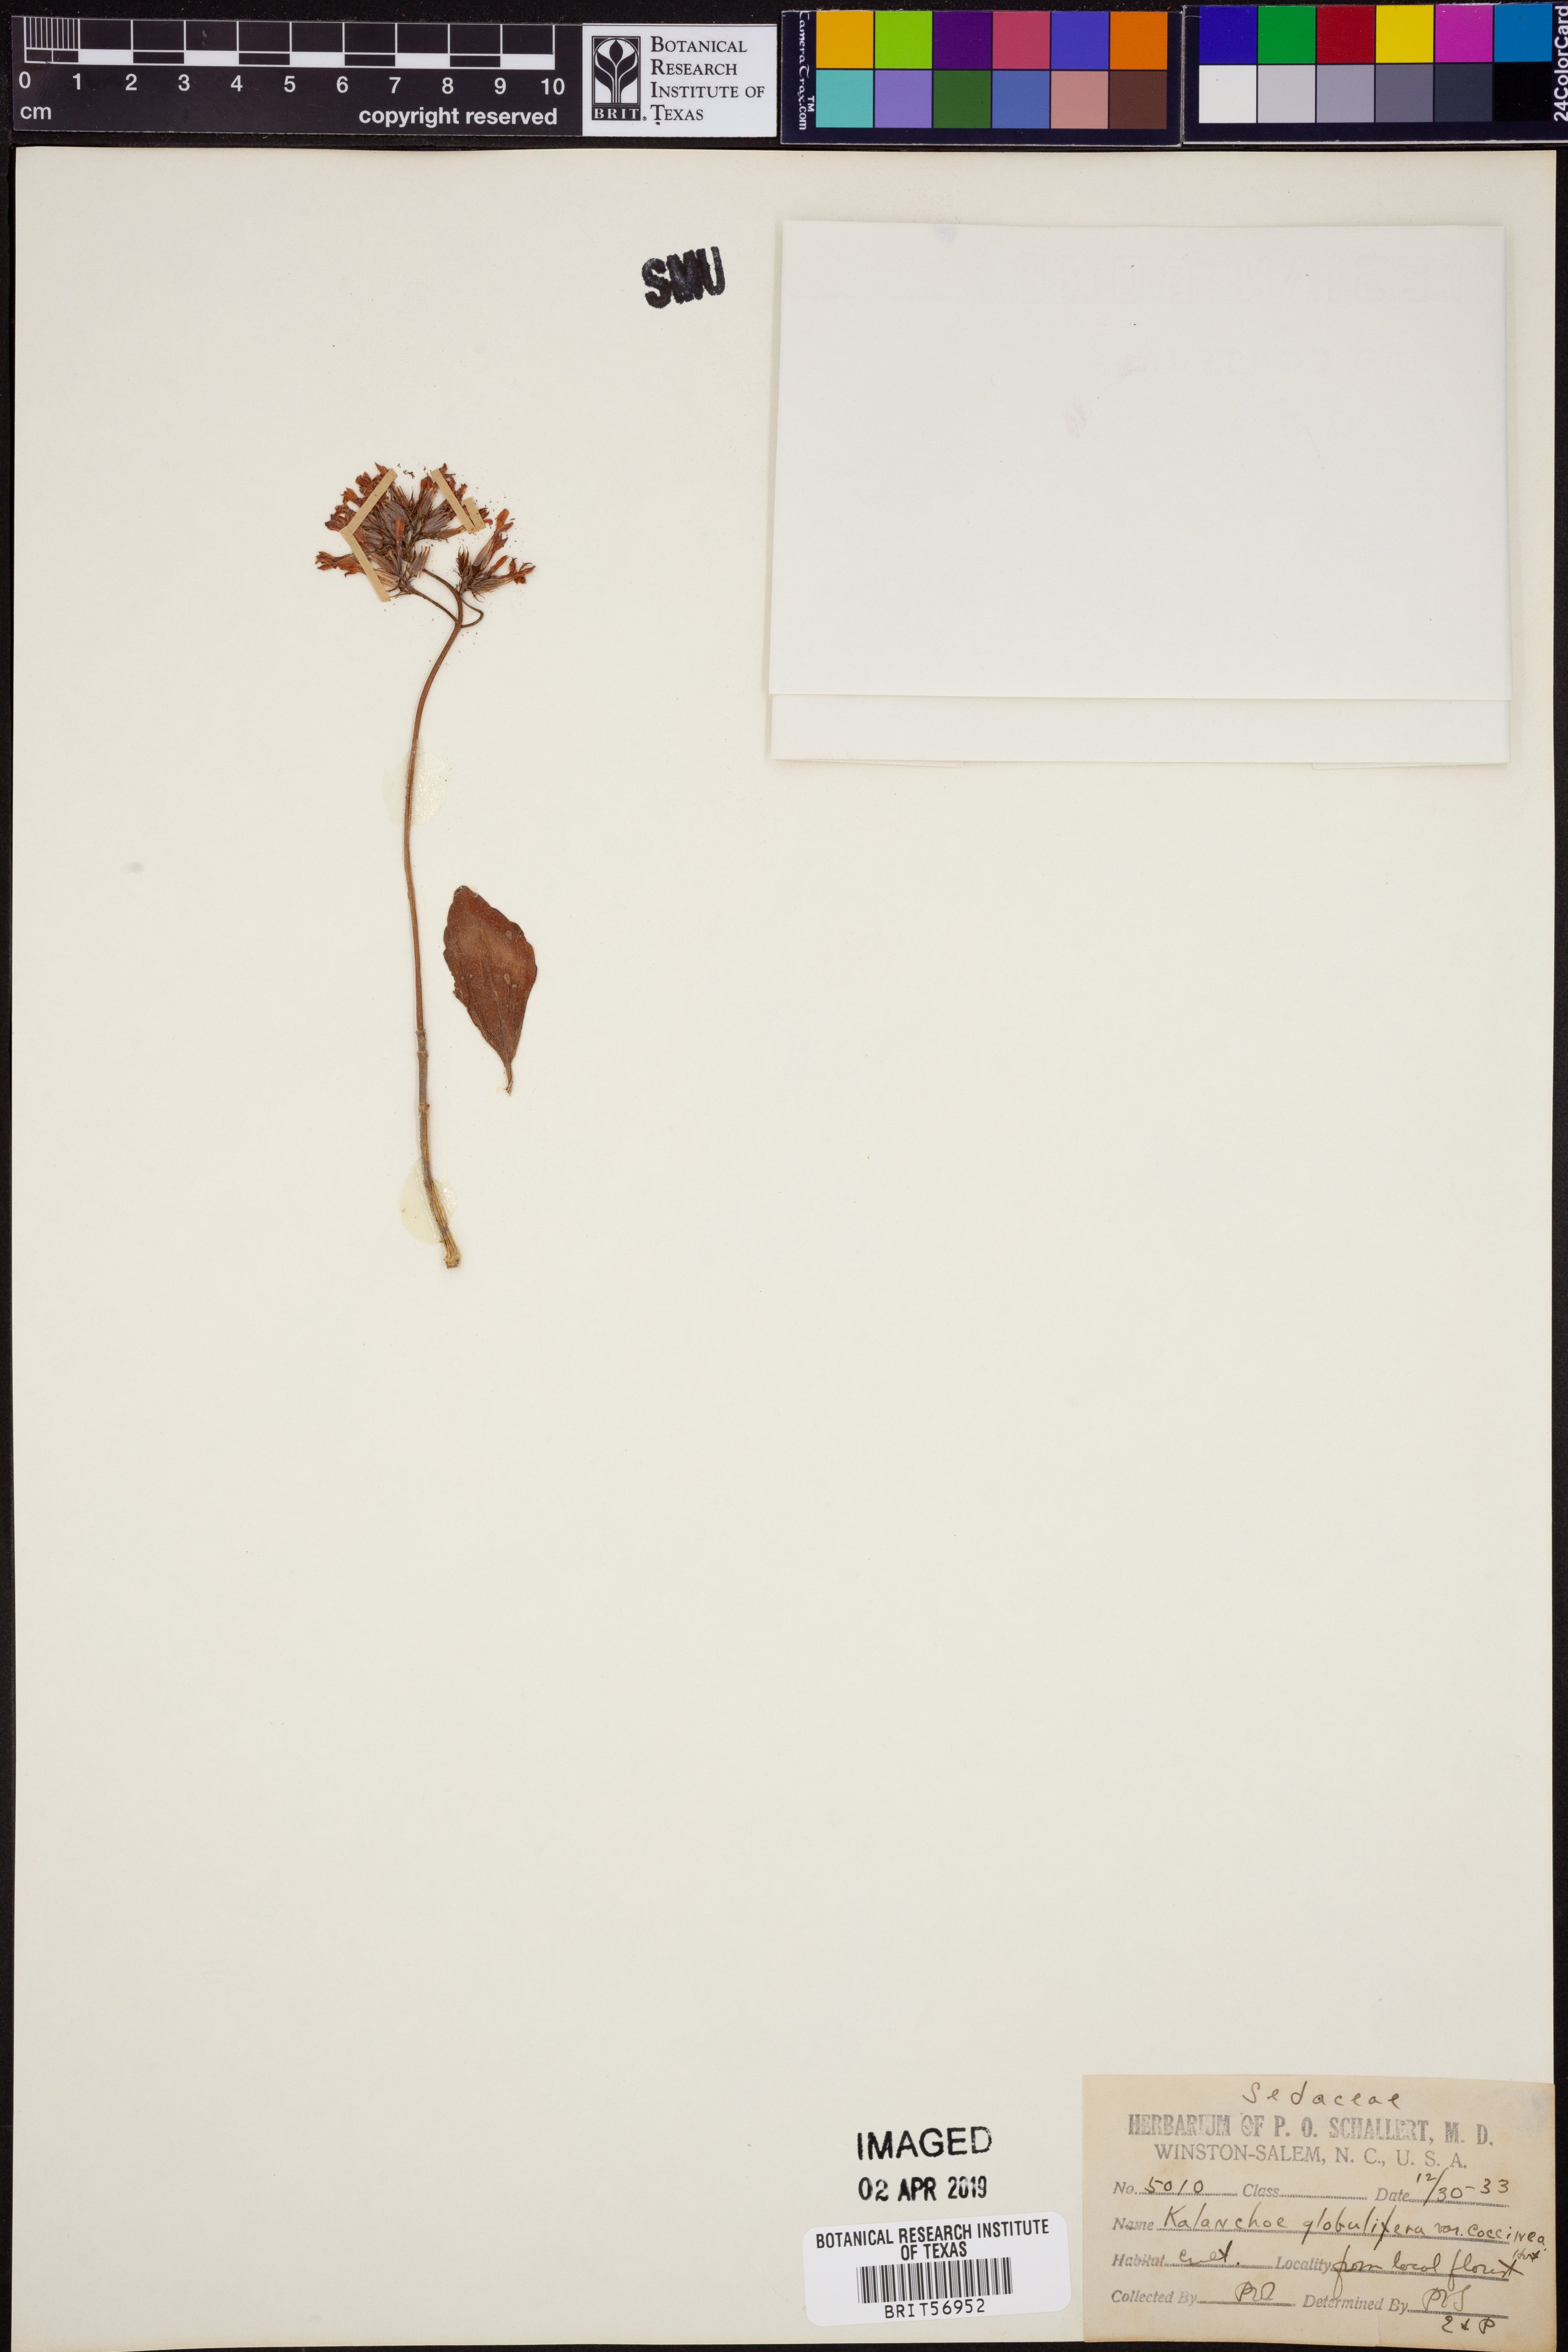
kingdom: Plantae
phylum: Tracheophyta
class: Magnoliopsida
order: Saxifragales
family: Crassulaceae
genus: Kalanchoe
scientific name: Kalanchoe blossfeldiana
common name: Flaming katy
